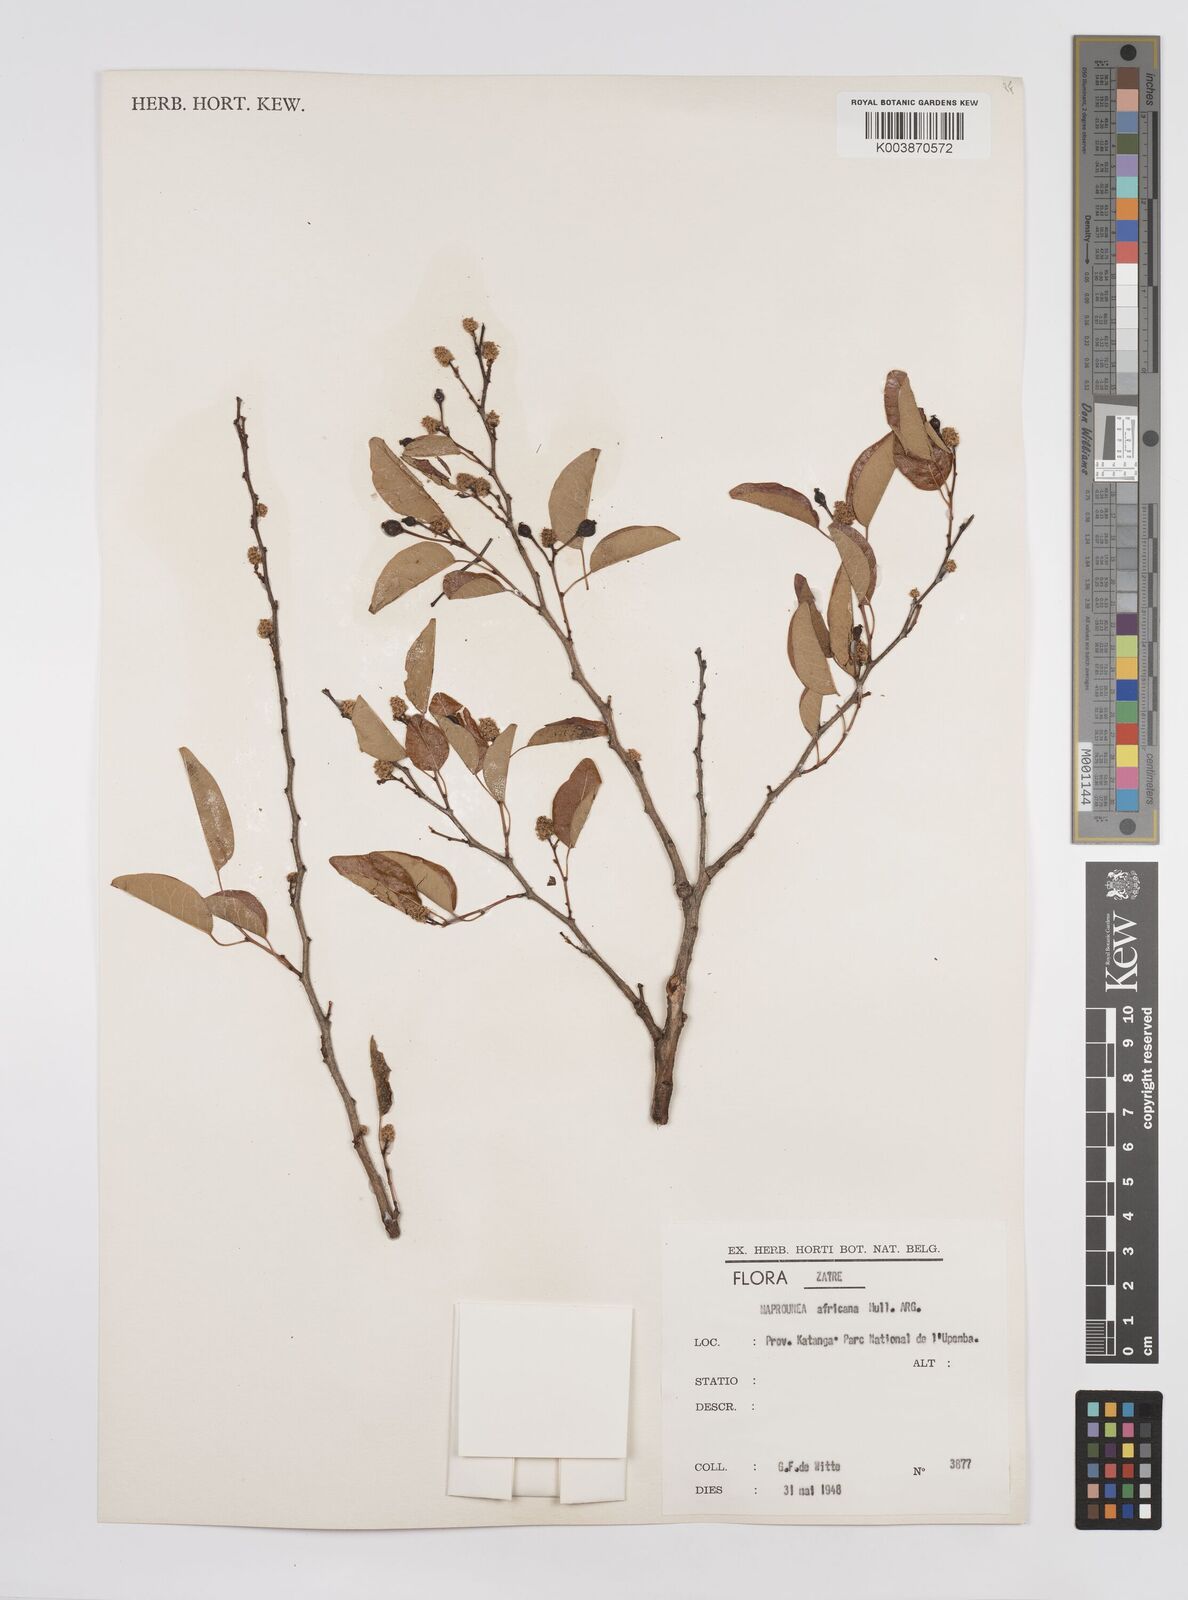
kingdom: Plantae
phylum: Tracheophyta
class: Magnoliopsida
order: Malpighiales
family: Euphorbiaceae
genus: Maprounea
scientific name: Maprounea africana
